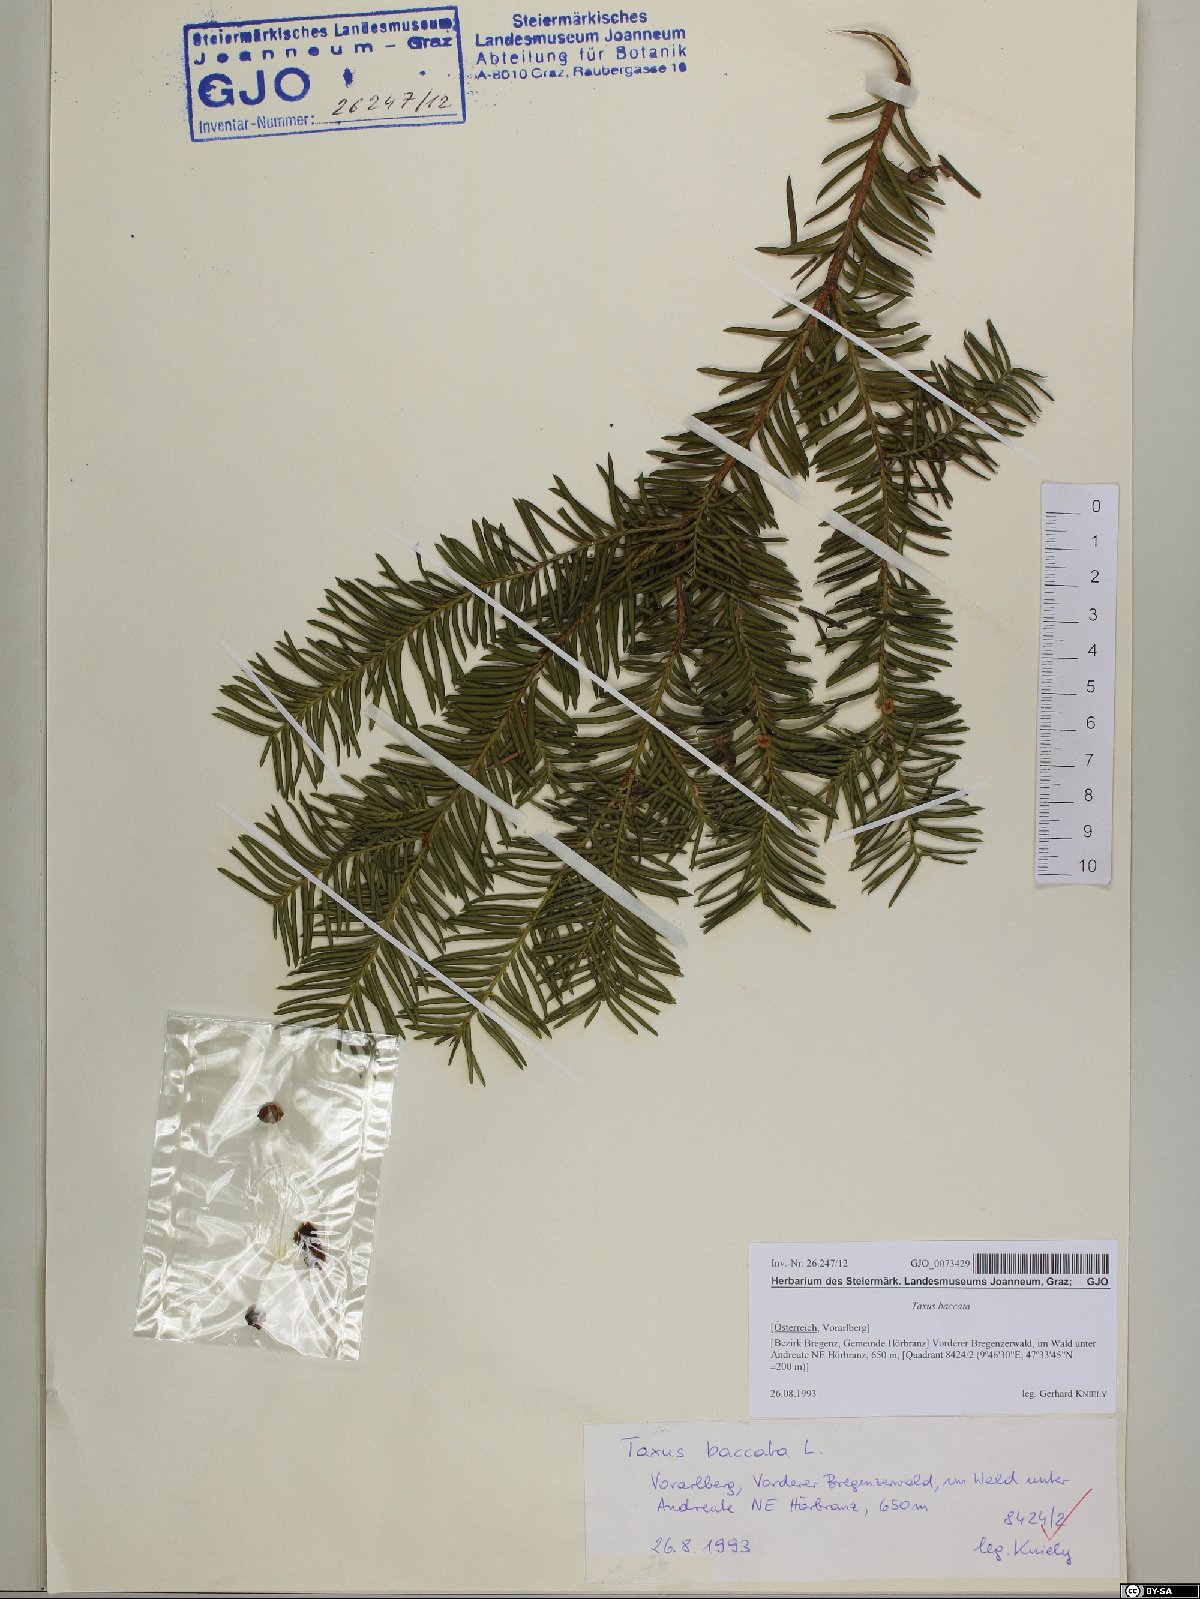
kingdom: Plantae
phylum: Tracheophyta
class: Pinopsida
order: Pinales
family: Taxaceae
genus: Taxus
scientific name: Taxus baccata
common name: Yew
